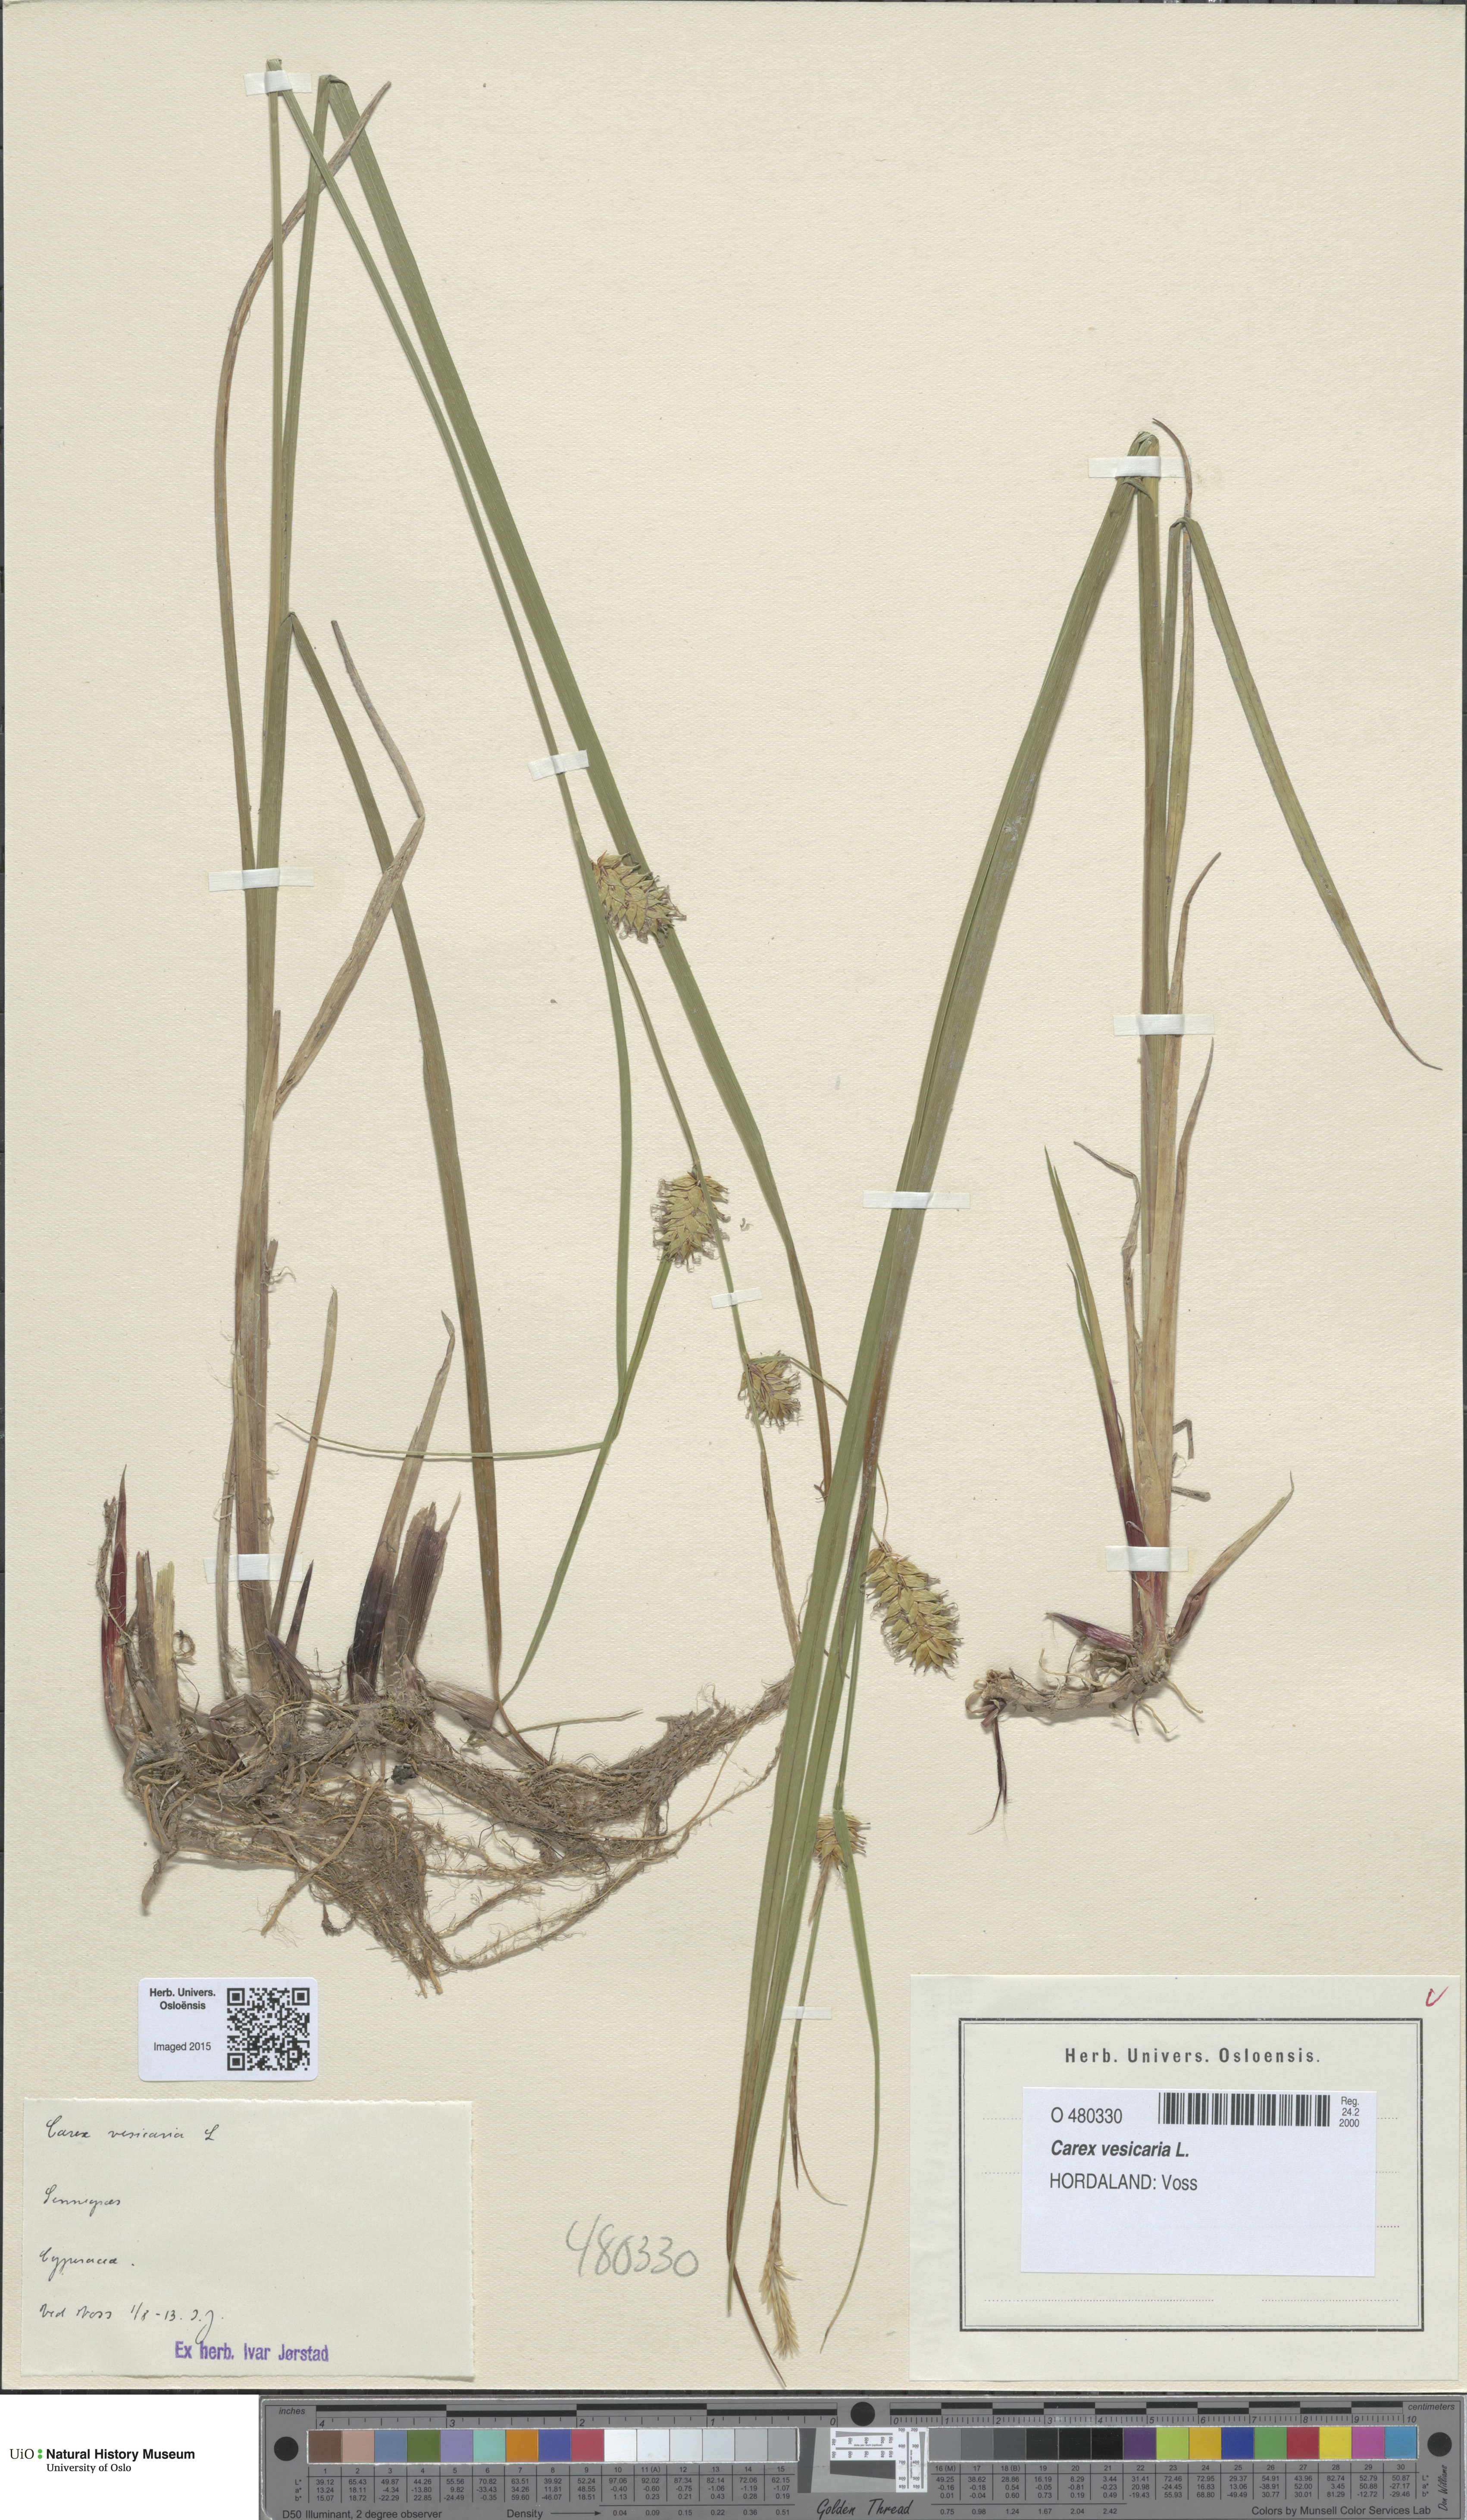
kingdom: Plantae
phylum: Tracheophyta
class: Liliopsida
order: Poales
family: Cyperaceae
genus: Carex
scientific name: Carex vesicaria
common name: Bladder-sedge
